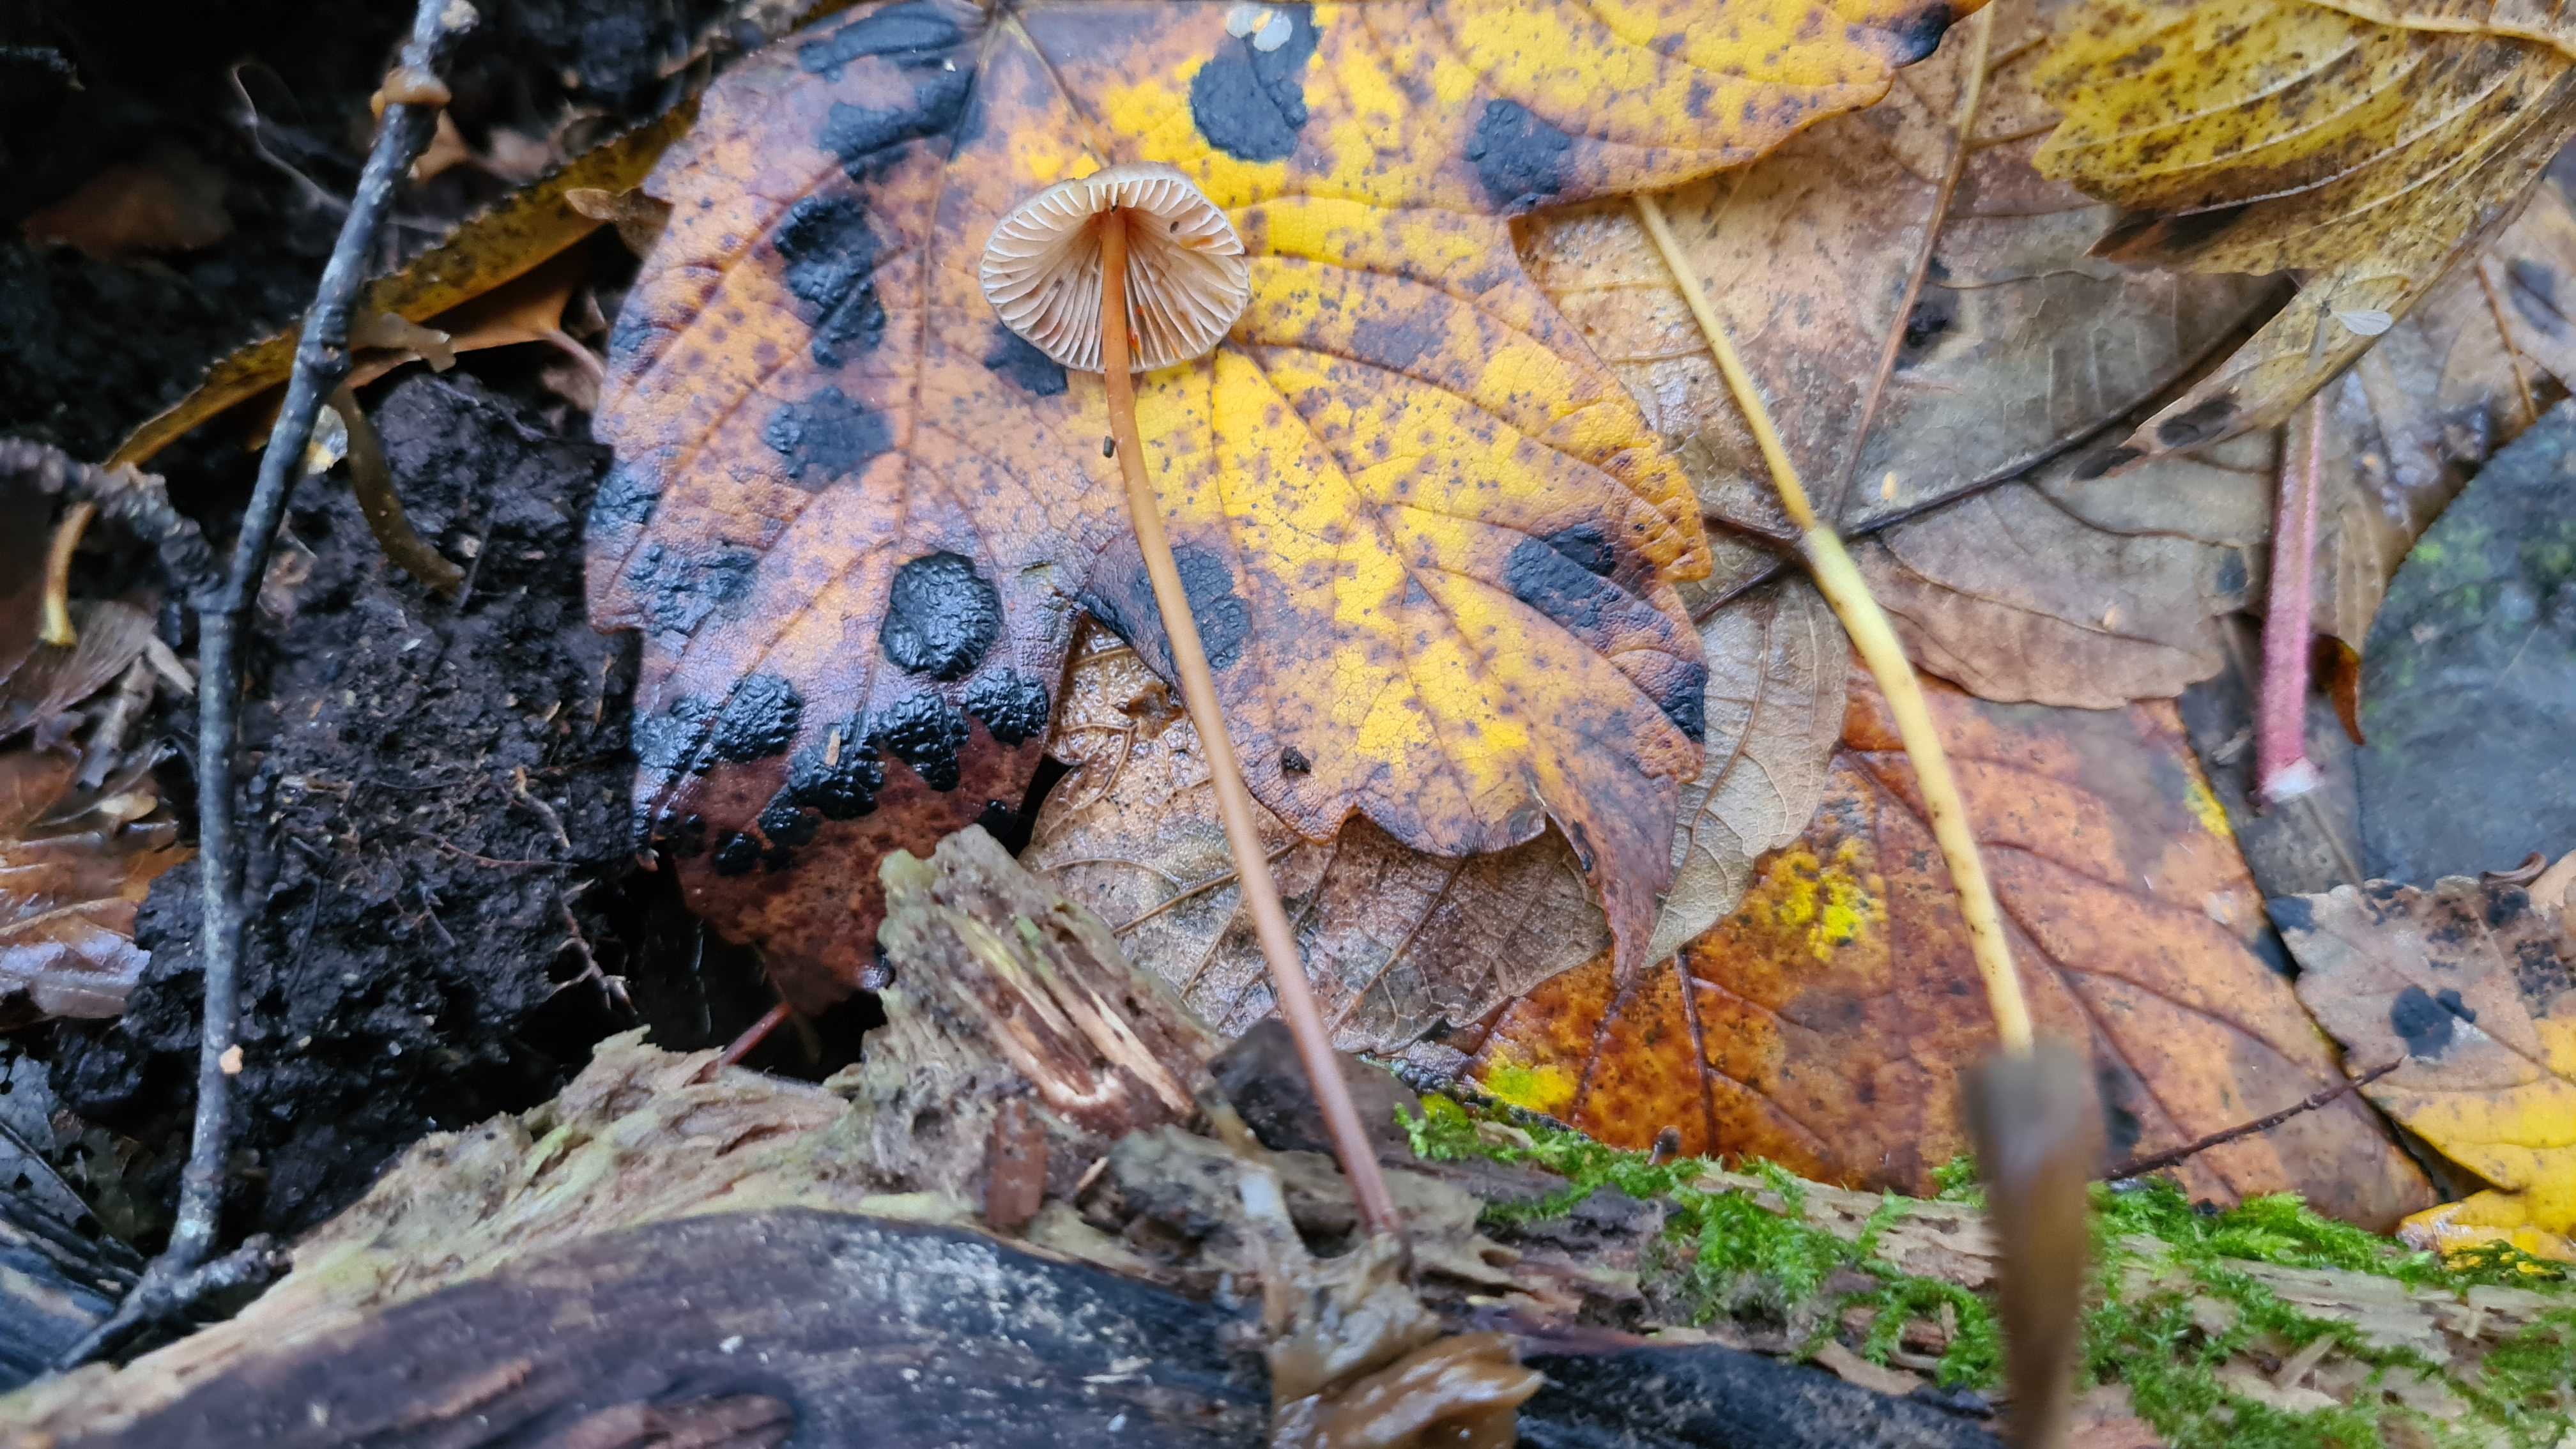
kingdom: Fungi
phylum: Basidiomycota
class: Agaricomycetes
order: Agaricales
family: Mycenaceae
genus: Mycena
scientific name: Mycena crocata
